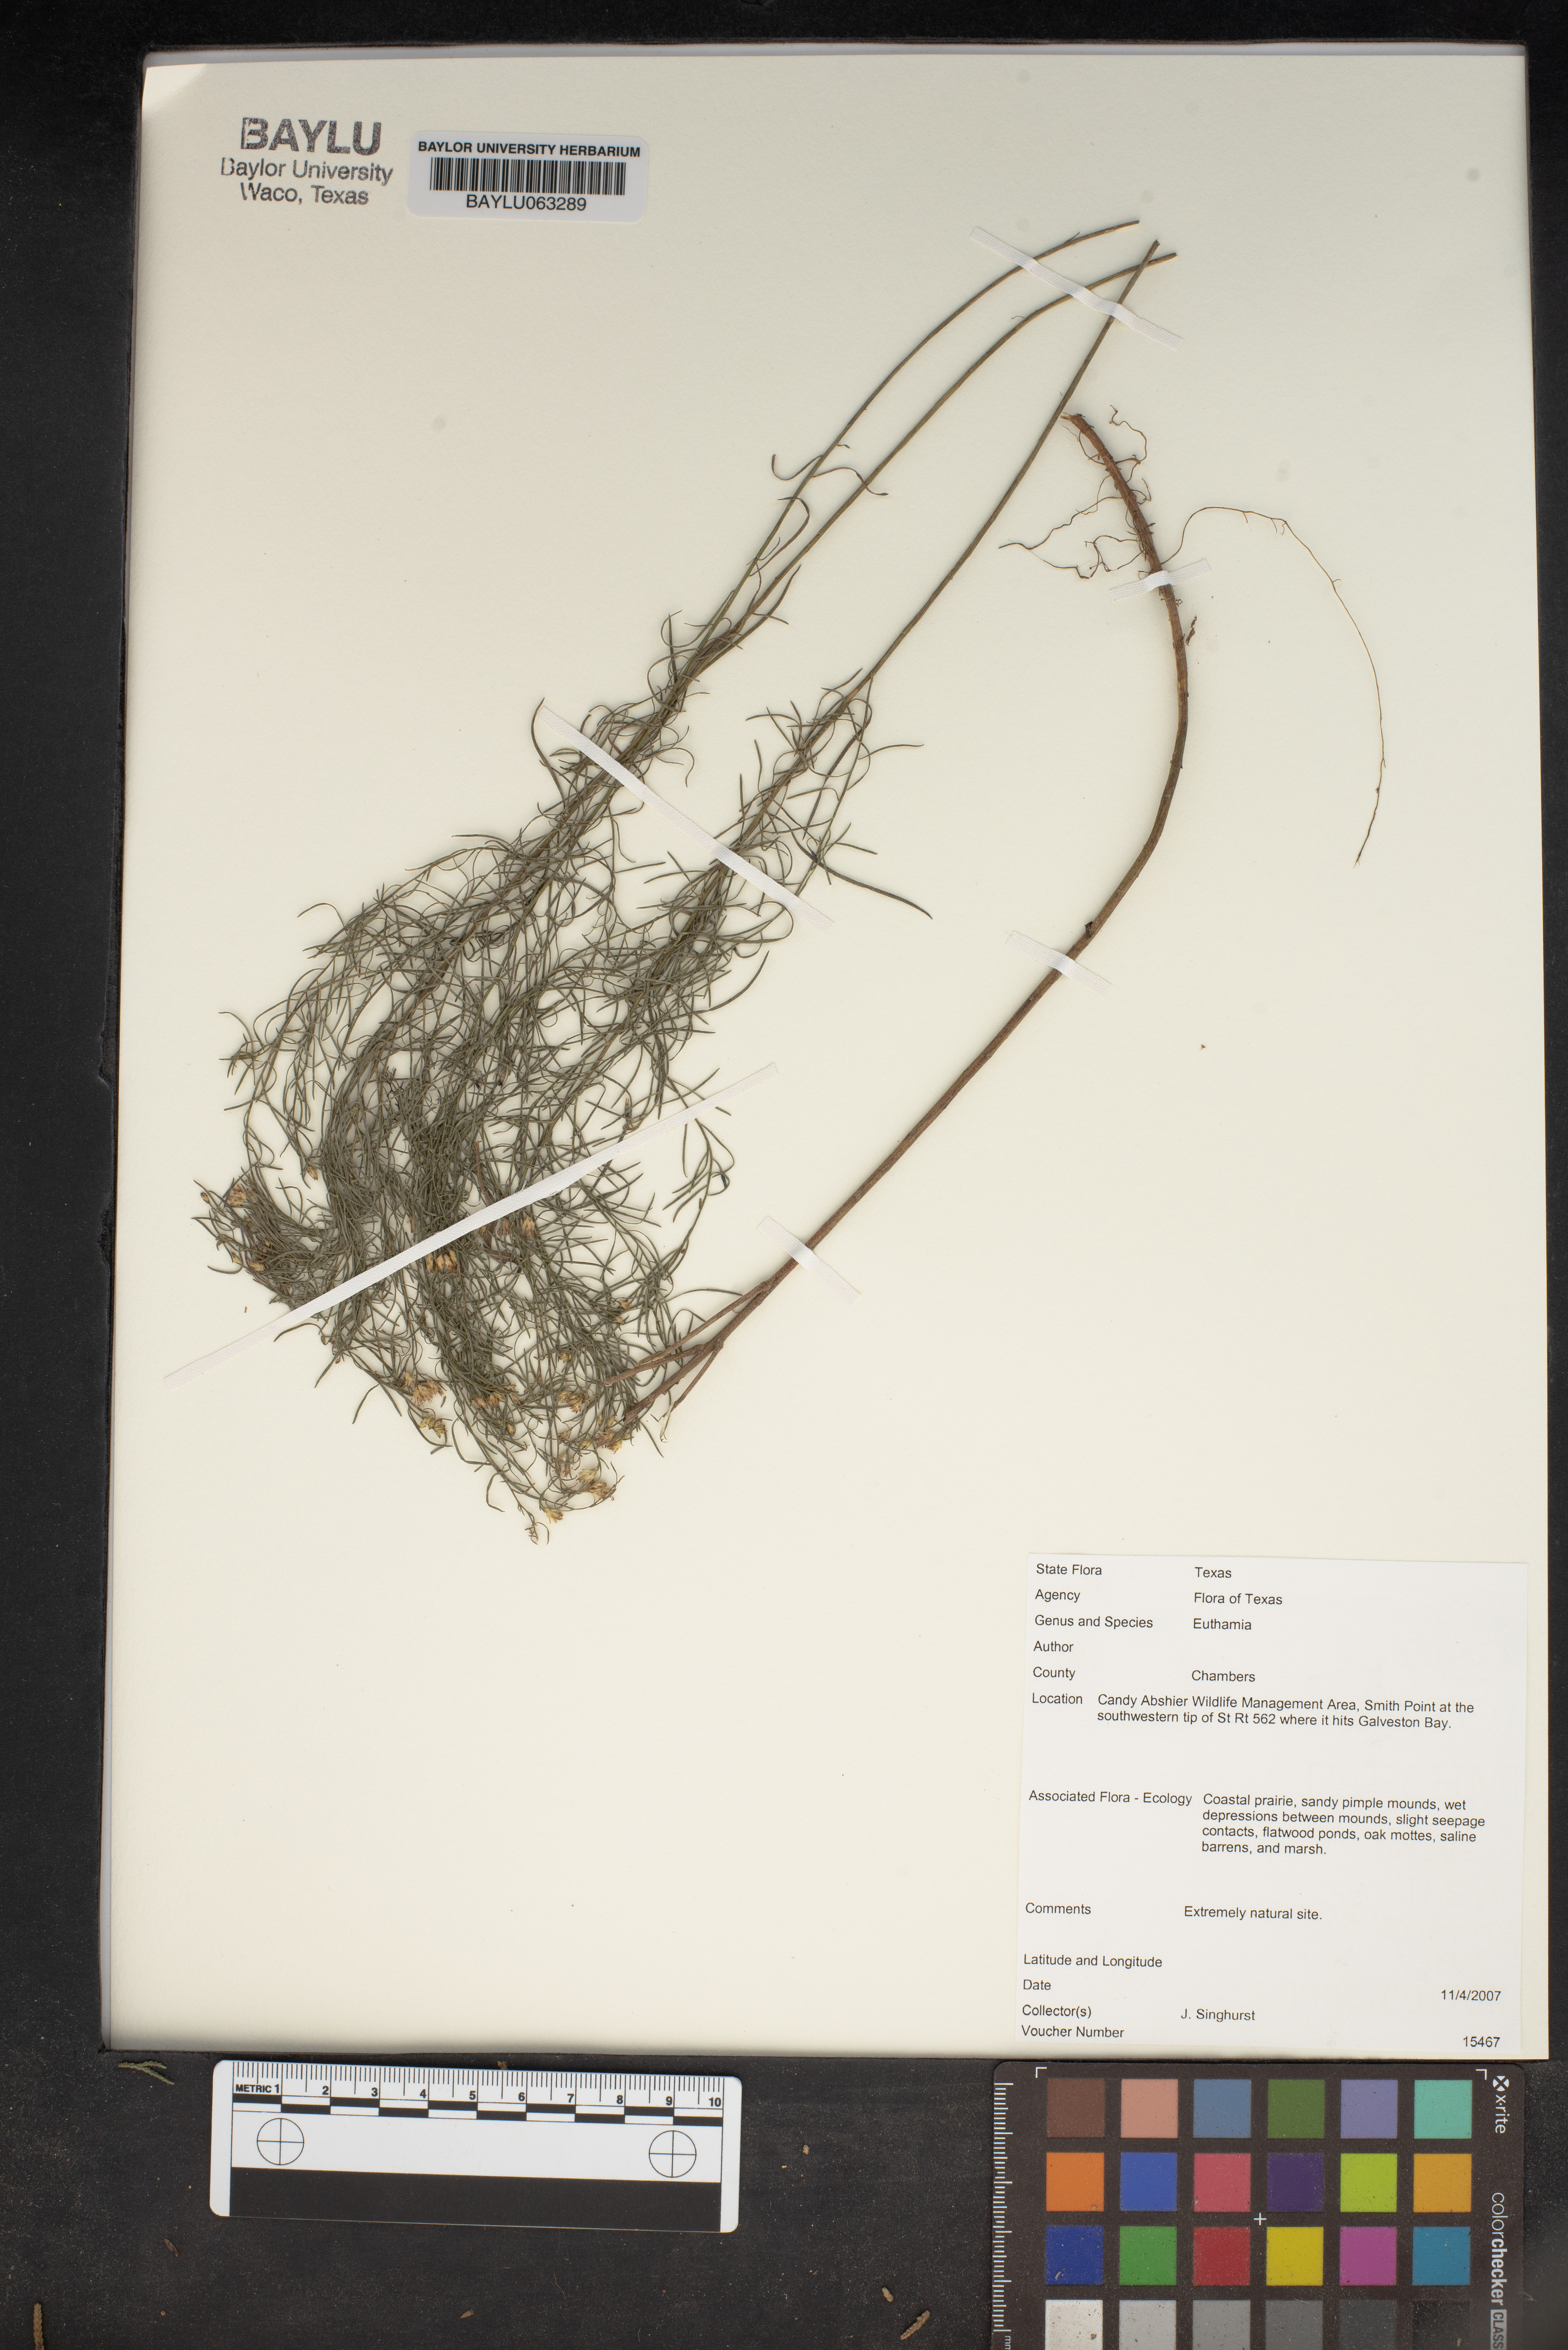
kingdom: Plantae
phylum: Tracheophyta
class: Magnoliopsida
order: Asterales
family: Asteraceae
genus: Euthamia
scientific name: Euthamia
